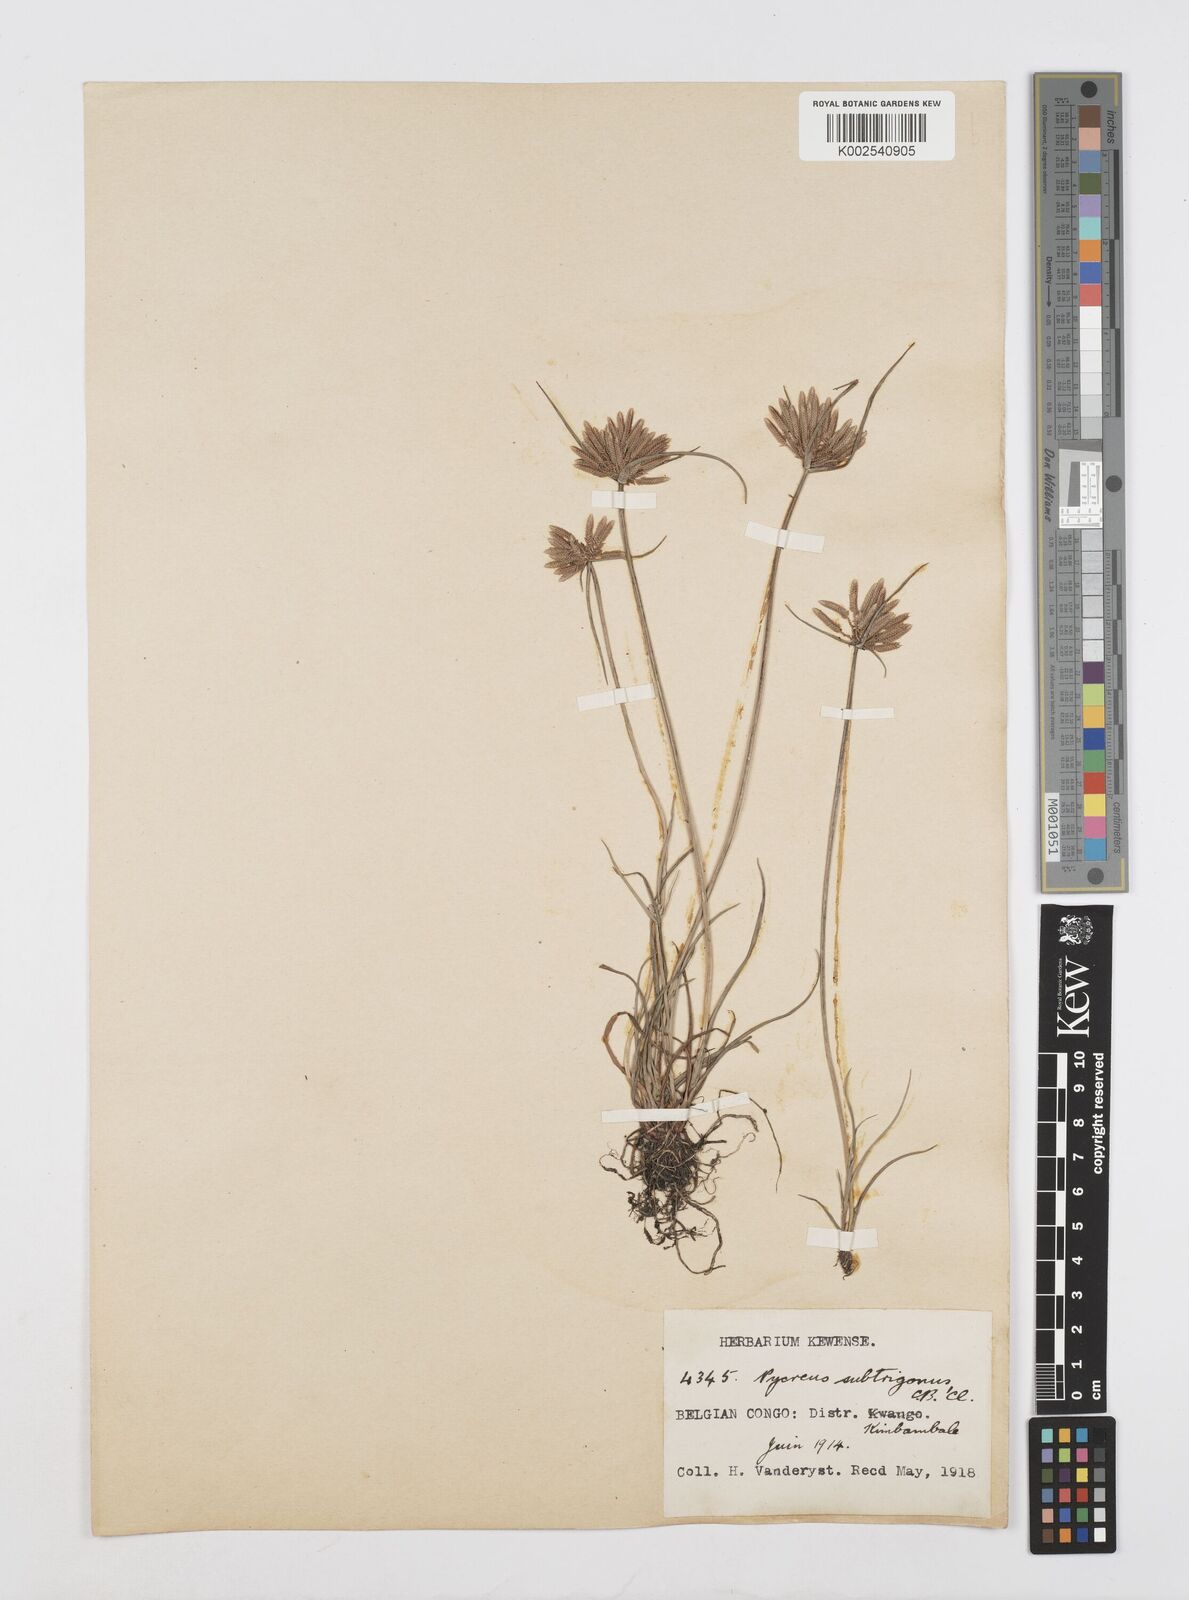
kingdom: Plantae
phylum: Tracheophyta
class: Liliopsida
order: Poales
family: Cyperaceae
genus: Cyperus
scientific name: Cyperus subtrigonus
